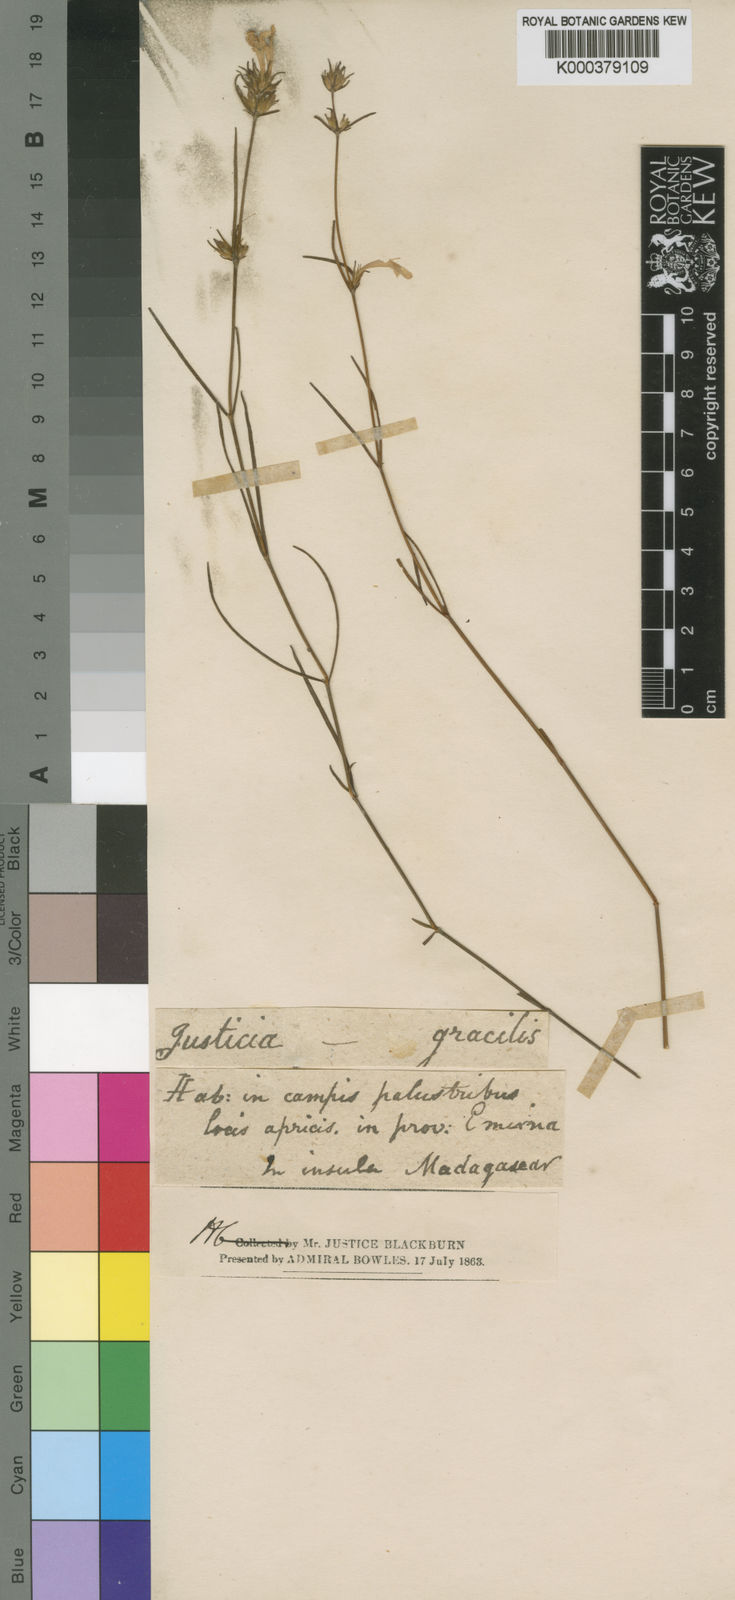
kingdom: Plantae
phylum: Tracheophyta
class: Magnoliopsida
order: Lamiales
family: Acanthaceae
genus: Hypoestes
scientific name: Hypoestes gracilis
